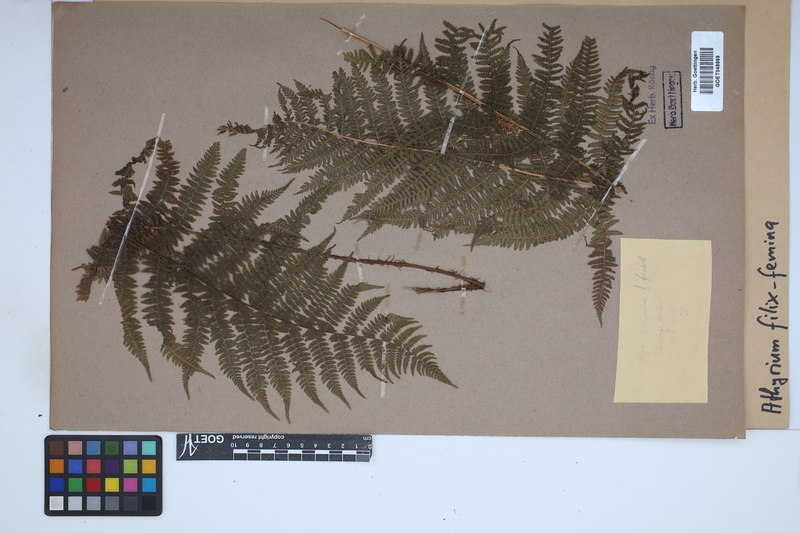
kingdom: Plantae
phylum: Tracheophyta
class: Polypodiopsida
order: Polypodiales
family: Athyriaceae
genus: Athyrium
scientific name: Athyrium filix-femina
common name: Lady fern
